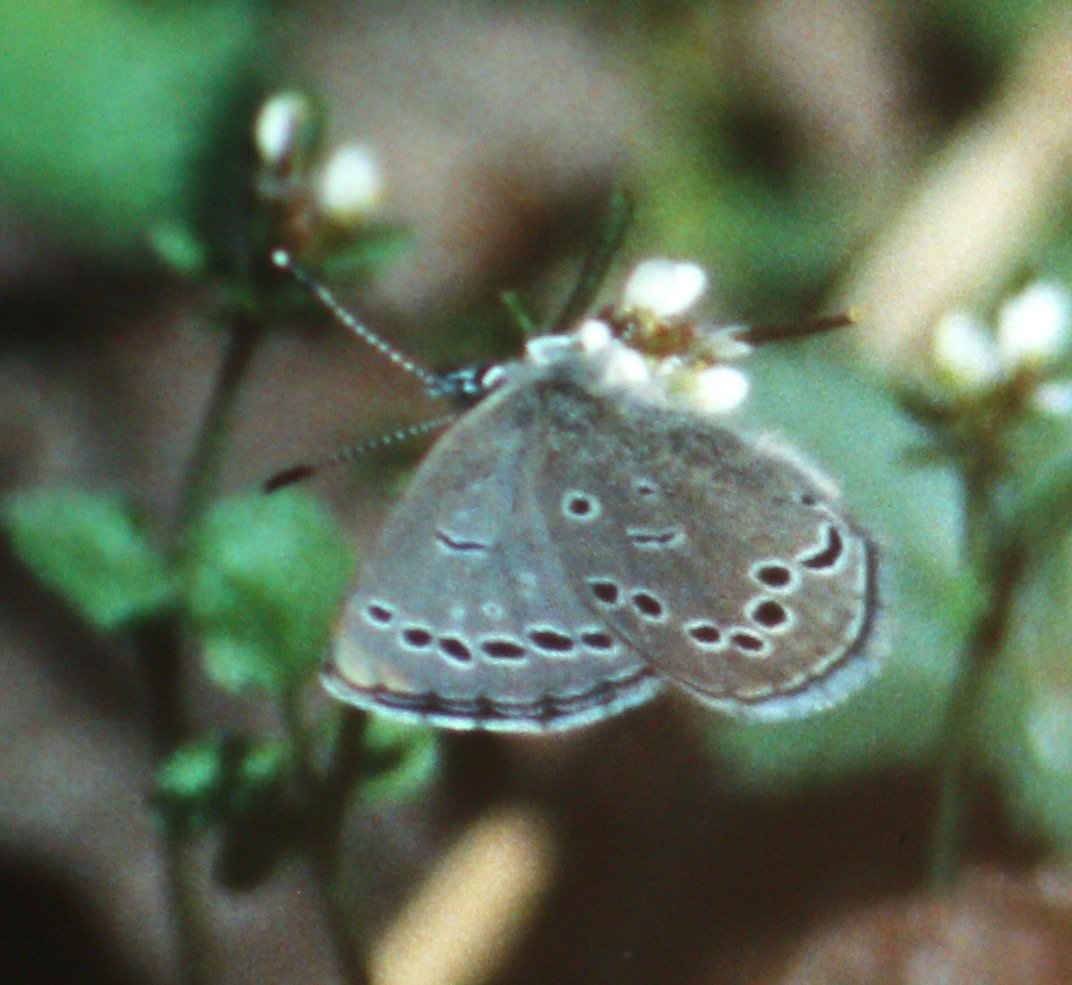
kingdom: Animalia
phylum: Arthropoda
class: Insecta
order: Lepidoptera
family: Lycaenidae
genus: Glaucopsyche
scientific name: Glaucopsyche lygdamus
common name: Silvery Blue
